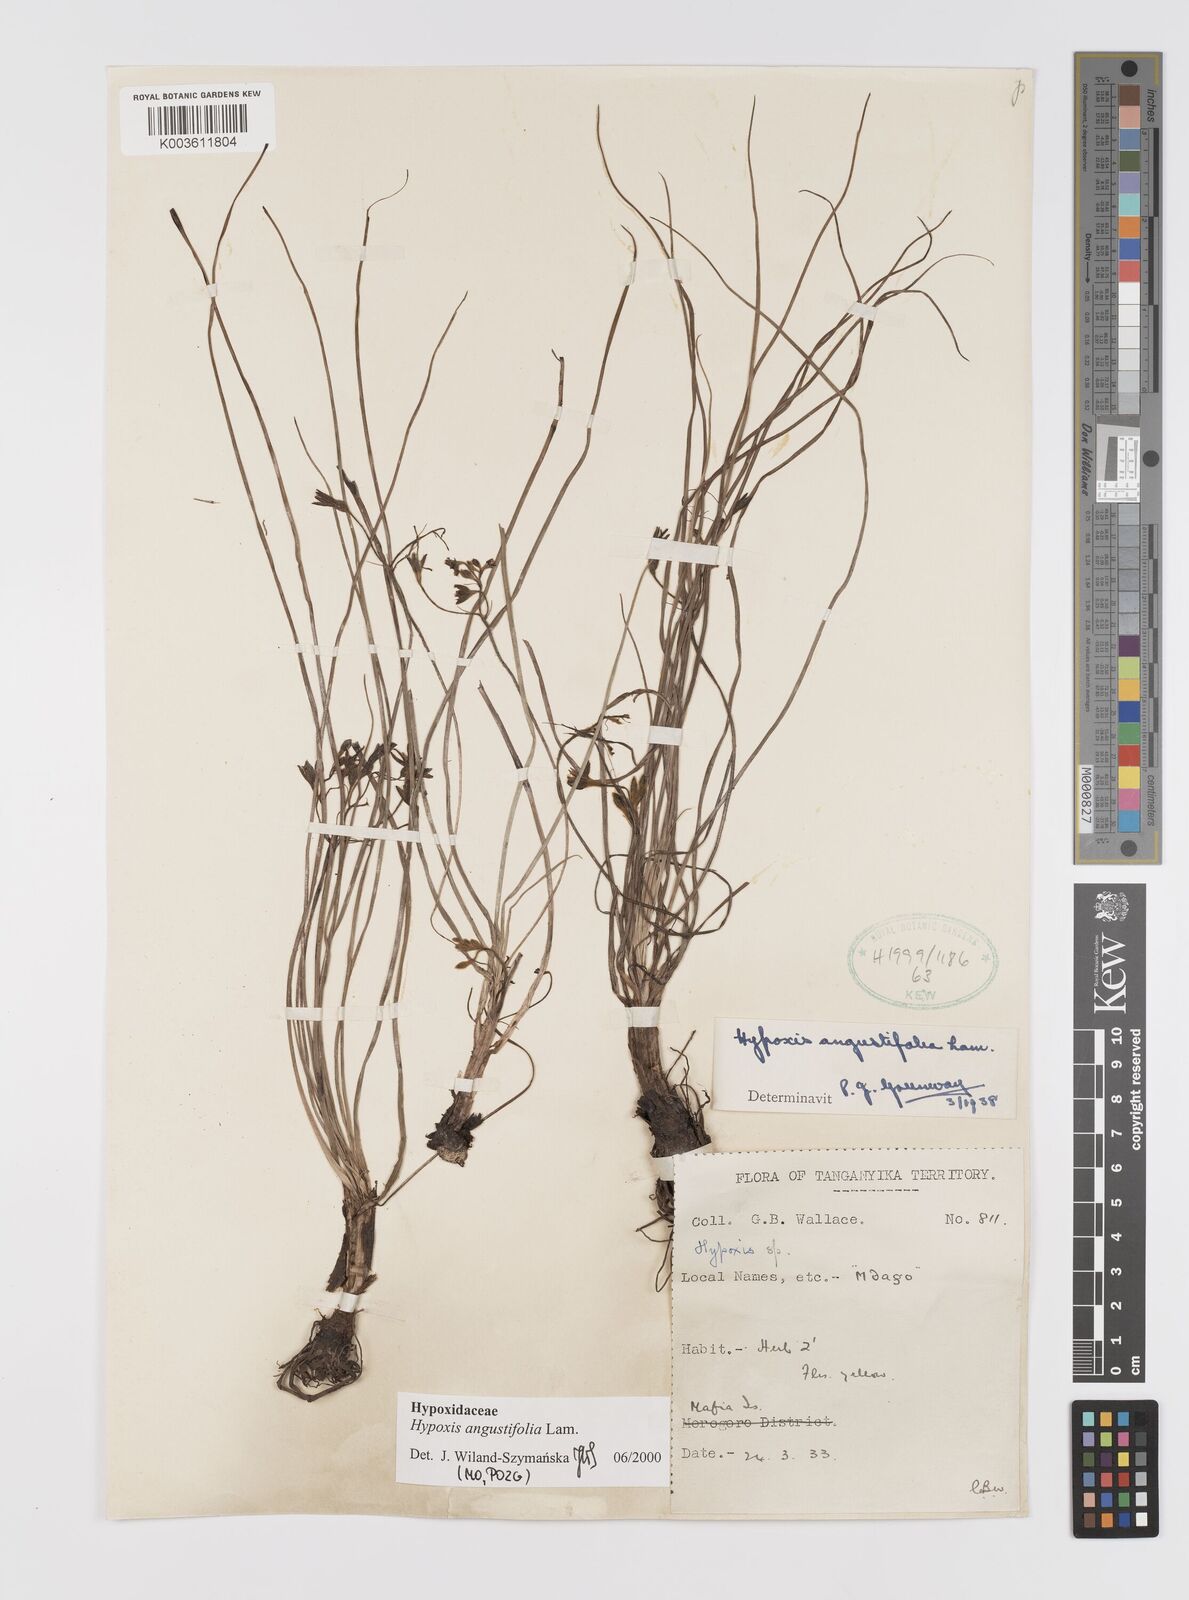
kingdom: Plantae
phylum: Tracheophyta
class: Liliopsida
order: Asparagales
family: Hypoxidaceae
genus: Hypoxis
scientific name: Hypoxis angustifolia
